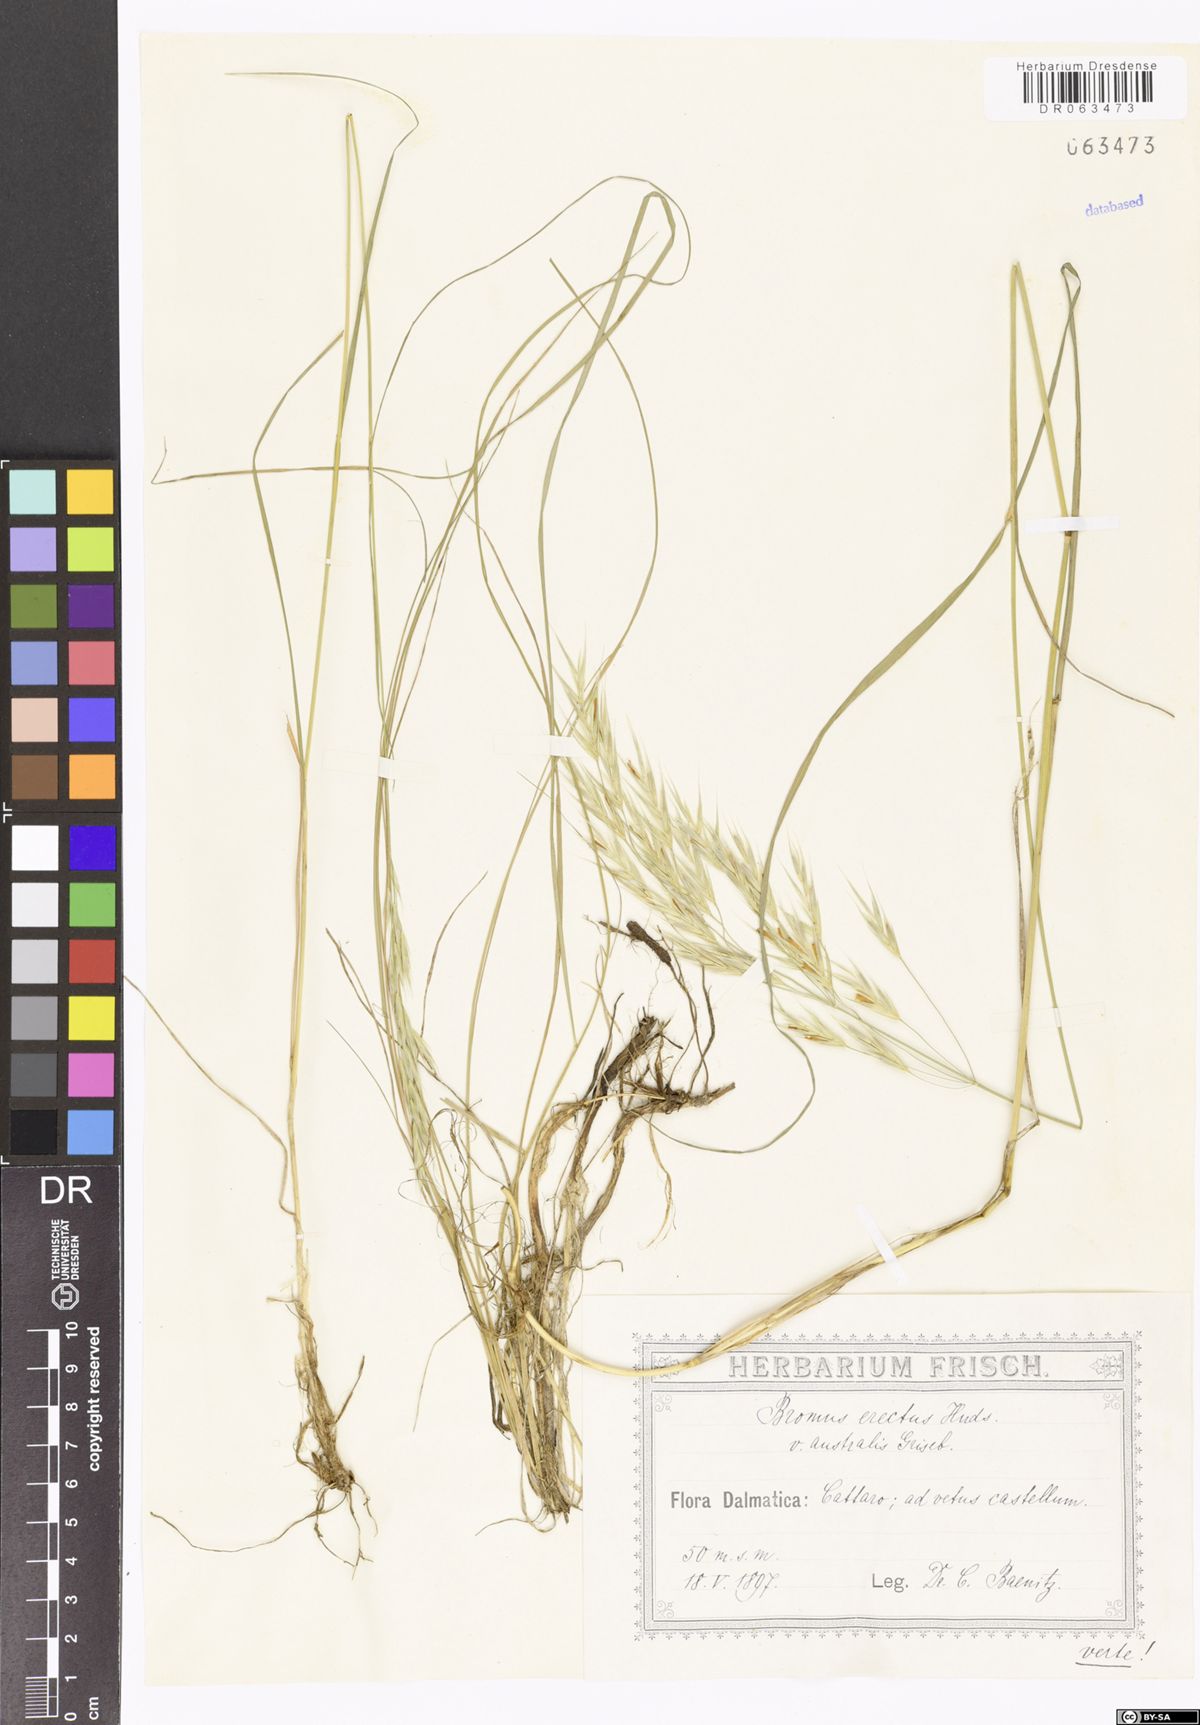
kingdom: Plantae
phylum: Tracheophyta
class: Liliopsida
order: Poales
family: Poaceae
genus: Bromus
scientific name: Bromus erectus
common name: Erect brome
